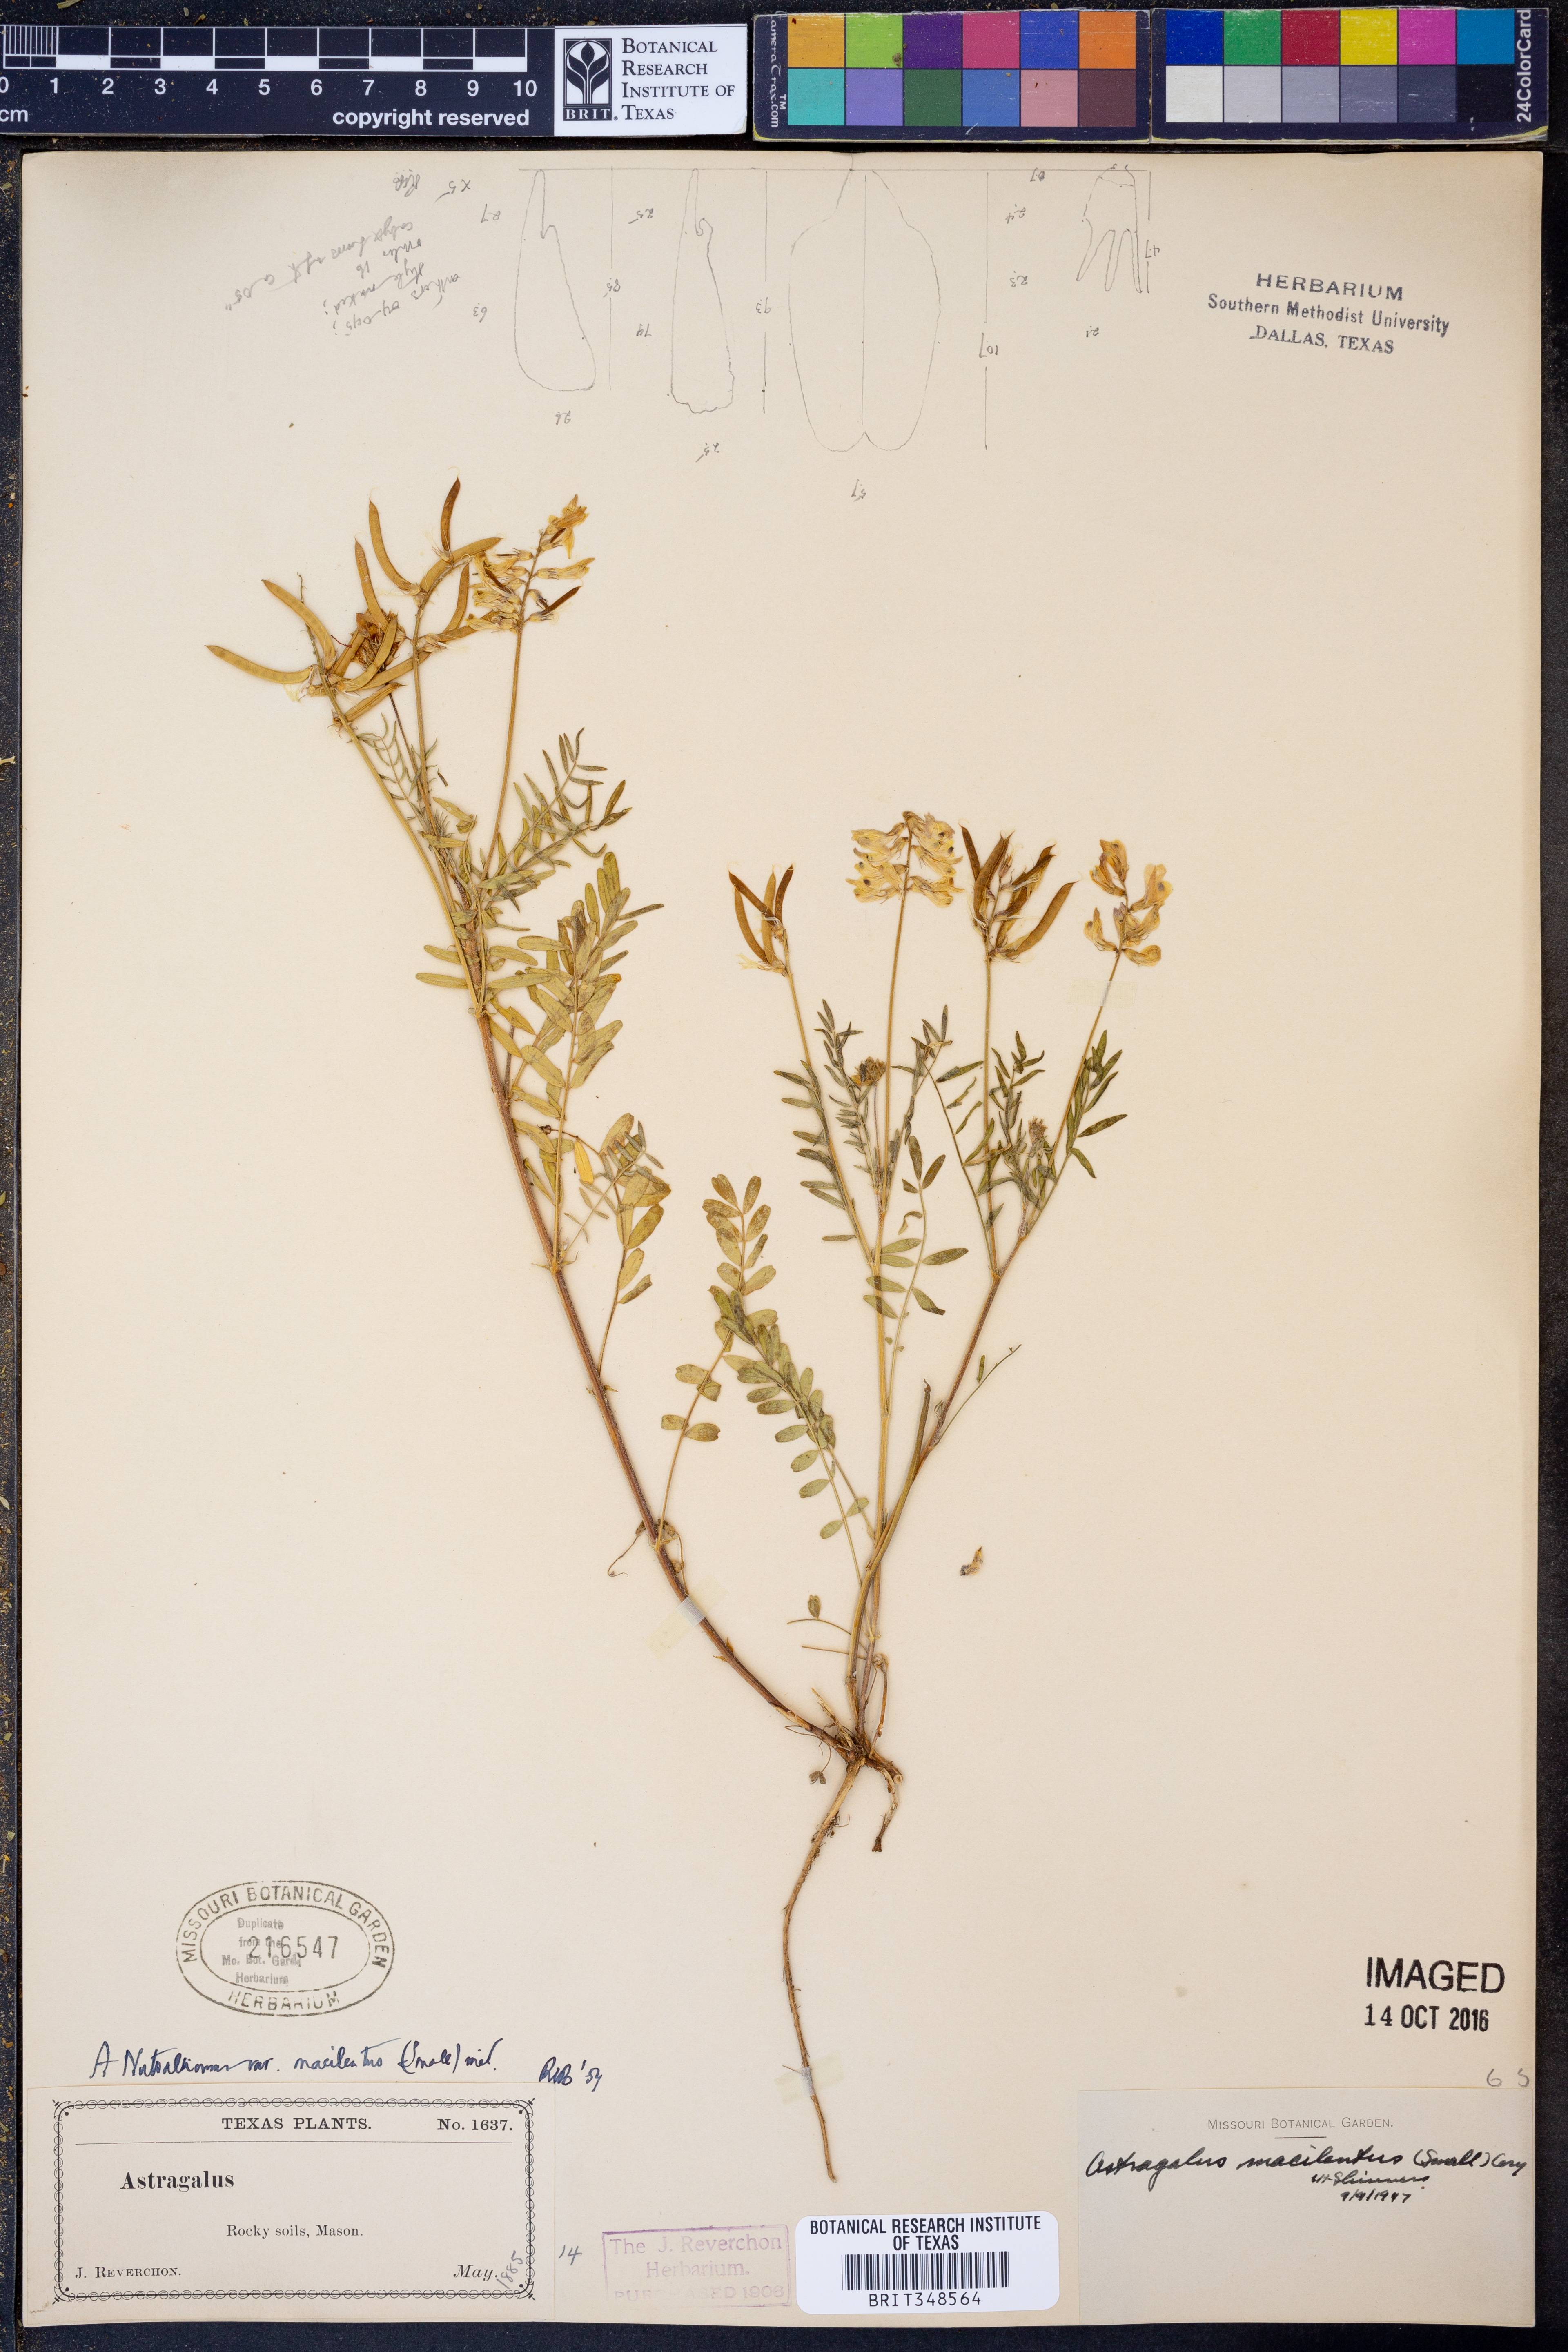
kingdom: Plantae
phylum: Tracheophyta
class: Magnoliopsida
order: Fabales
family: Fabaceae
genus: Astragalus
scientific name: Astragalus nuttallianus
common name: Smallflowered milkvetch
